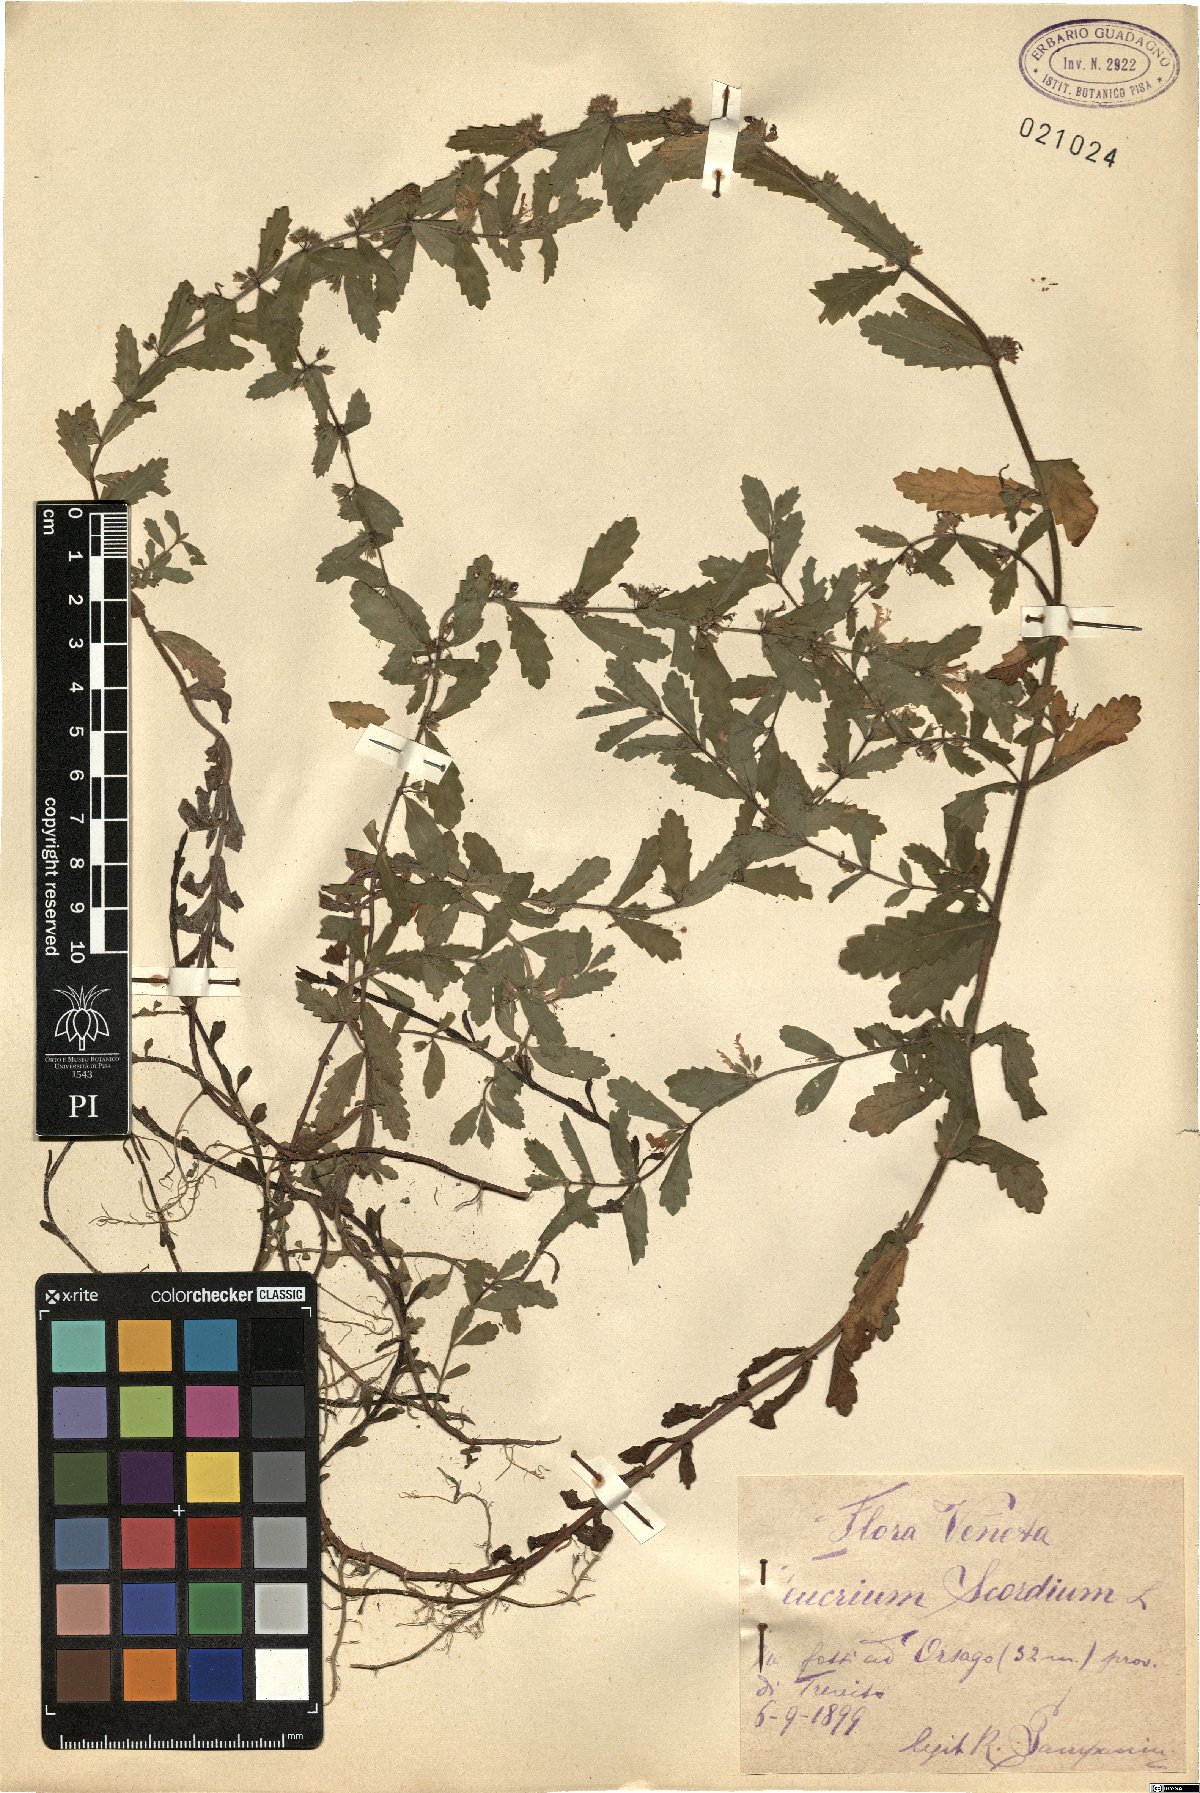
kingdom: Plantae
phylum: Tracheophyta
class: Magnoliopsida
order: Lamiales
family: Lamiaceae
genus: Teucrium
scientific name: Teucrium scordium
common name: Water germander
